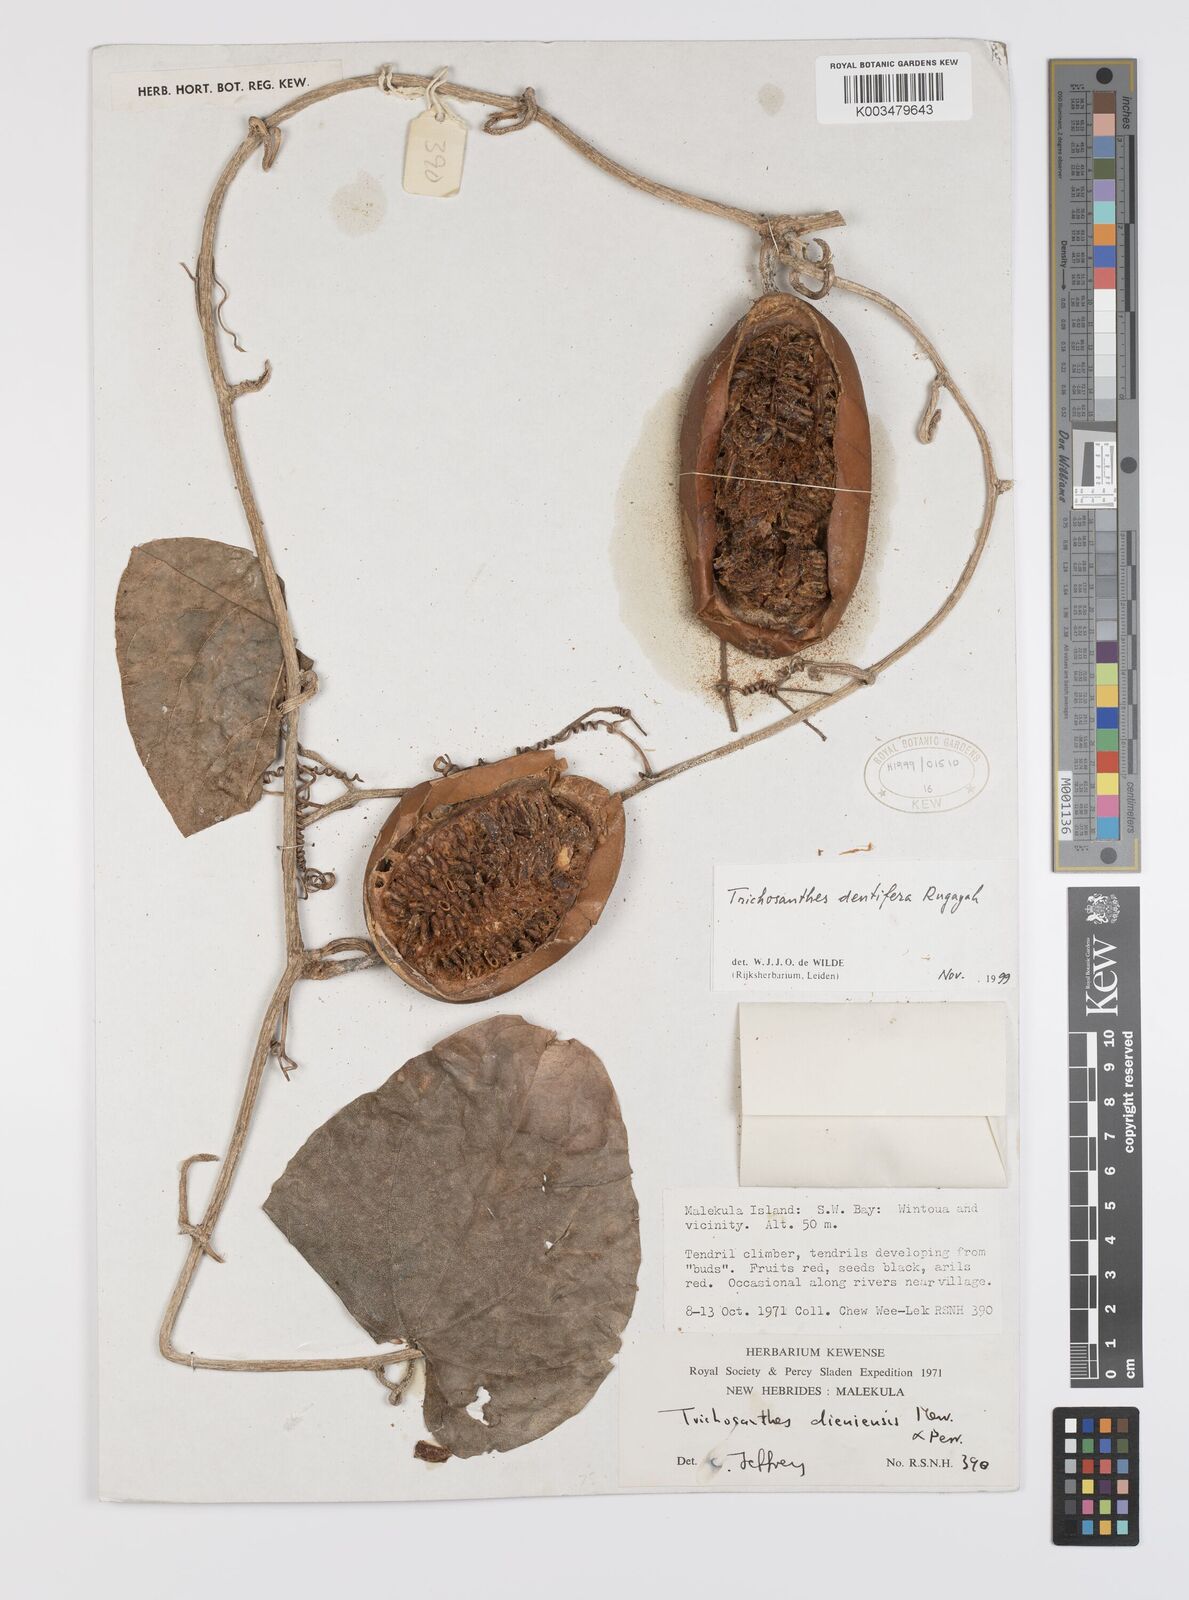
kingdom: Plantae
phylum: Tracheophyta
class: Magnoliopsida
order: Cucurbitales
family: Cucurbitaceae
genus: Trichosanthes
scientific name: Trichosanthes dentifera
